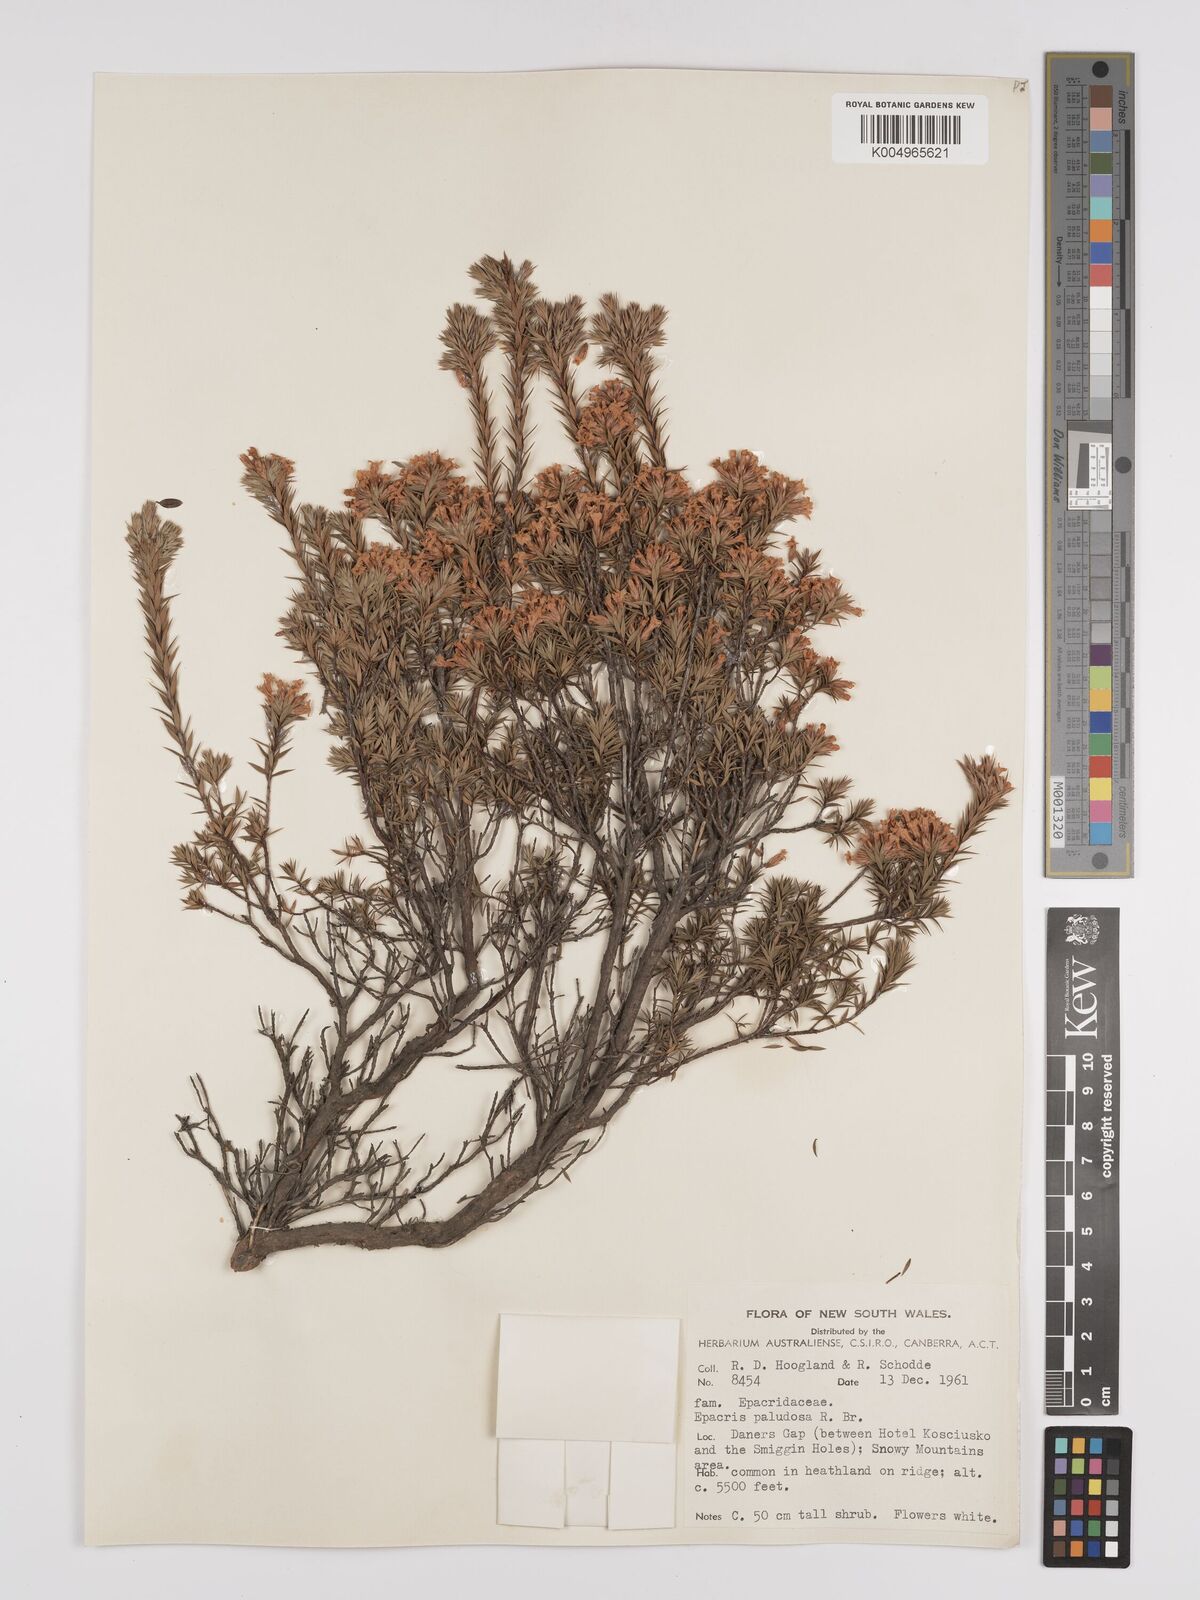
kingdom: Plantae
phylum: Tracheophyta
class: Magnoliopsida
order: Ericales
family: Ericaceae
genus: Epacris
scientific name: Epacris paludosa
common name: Swamp-heath
